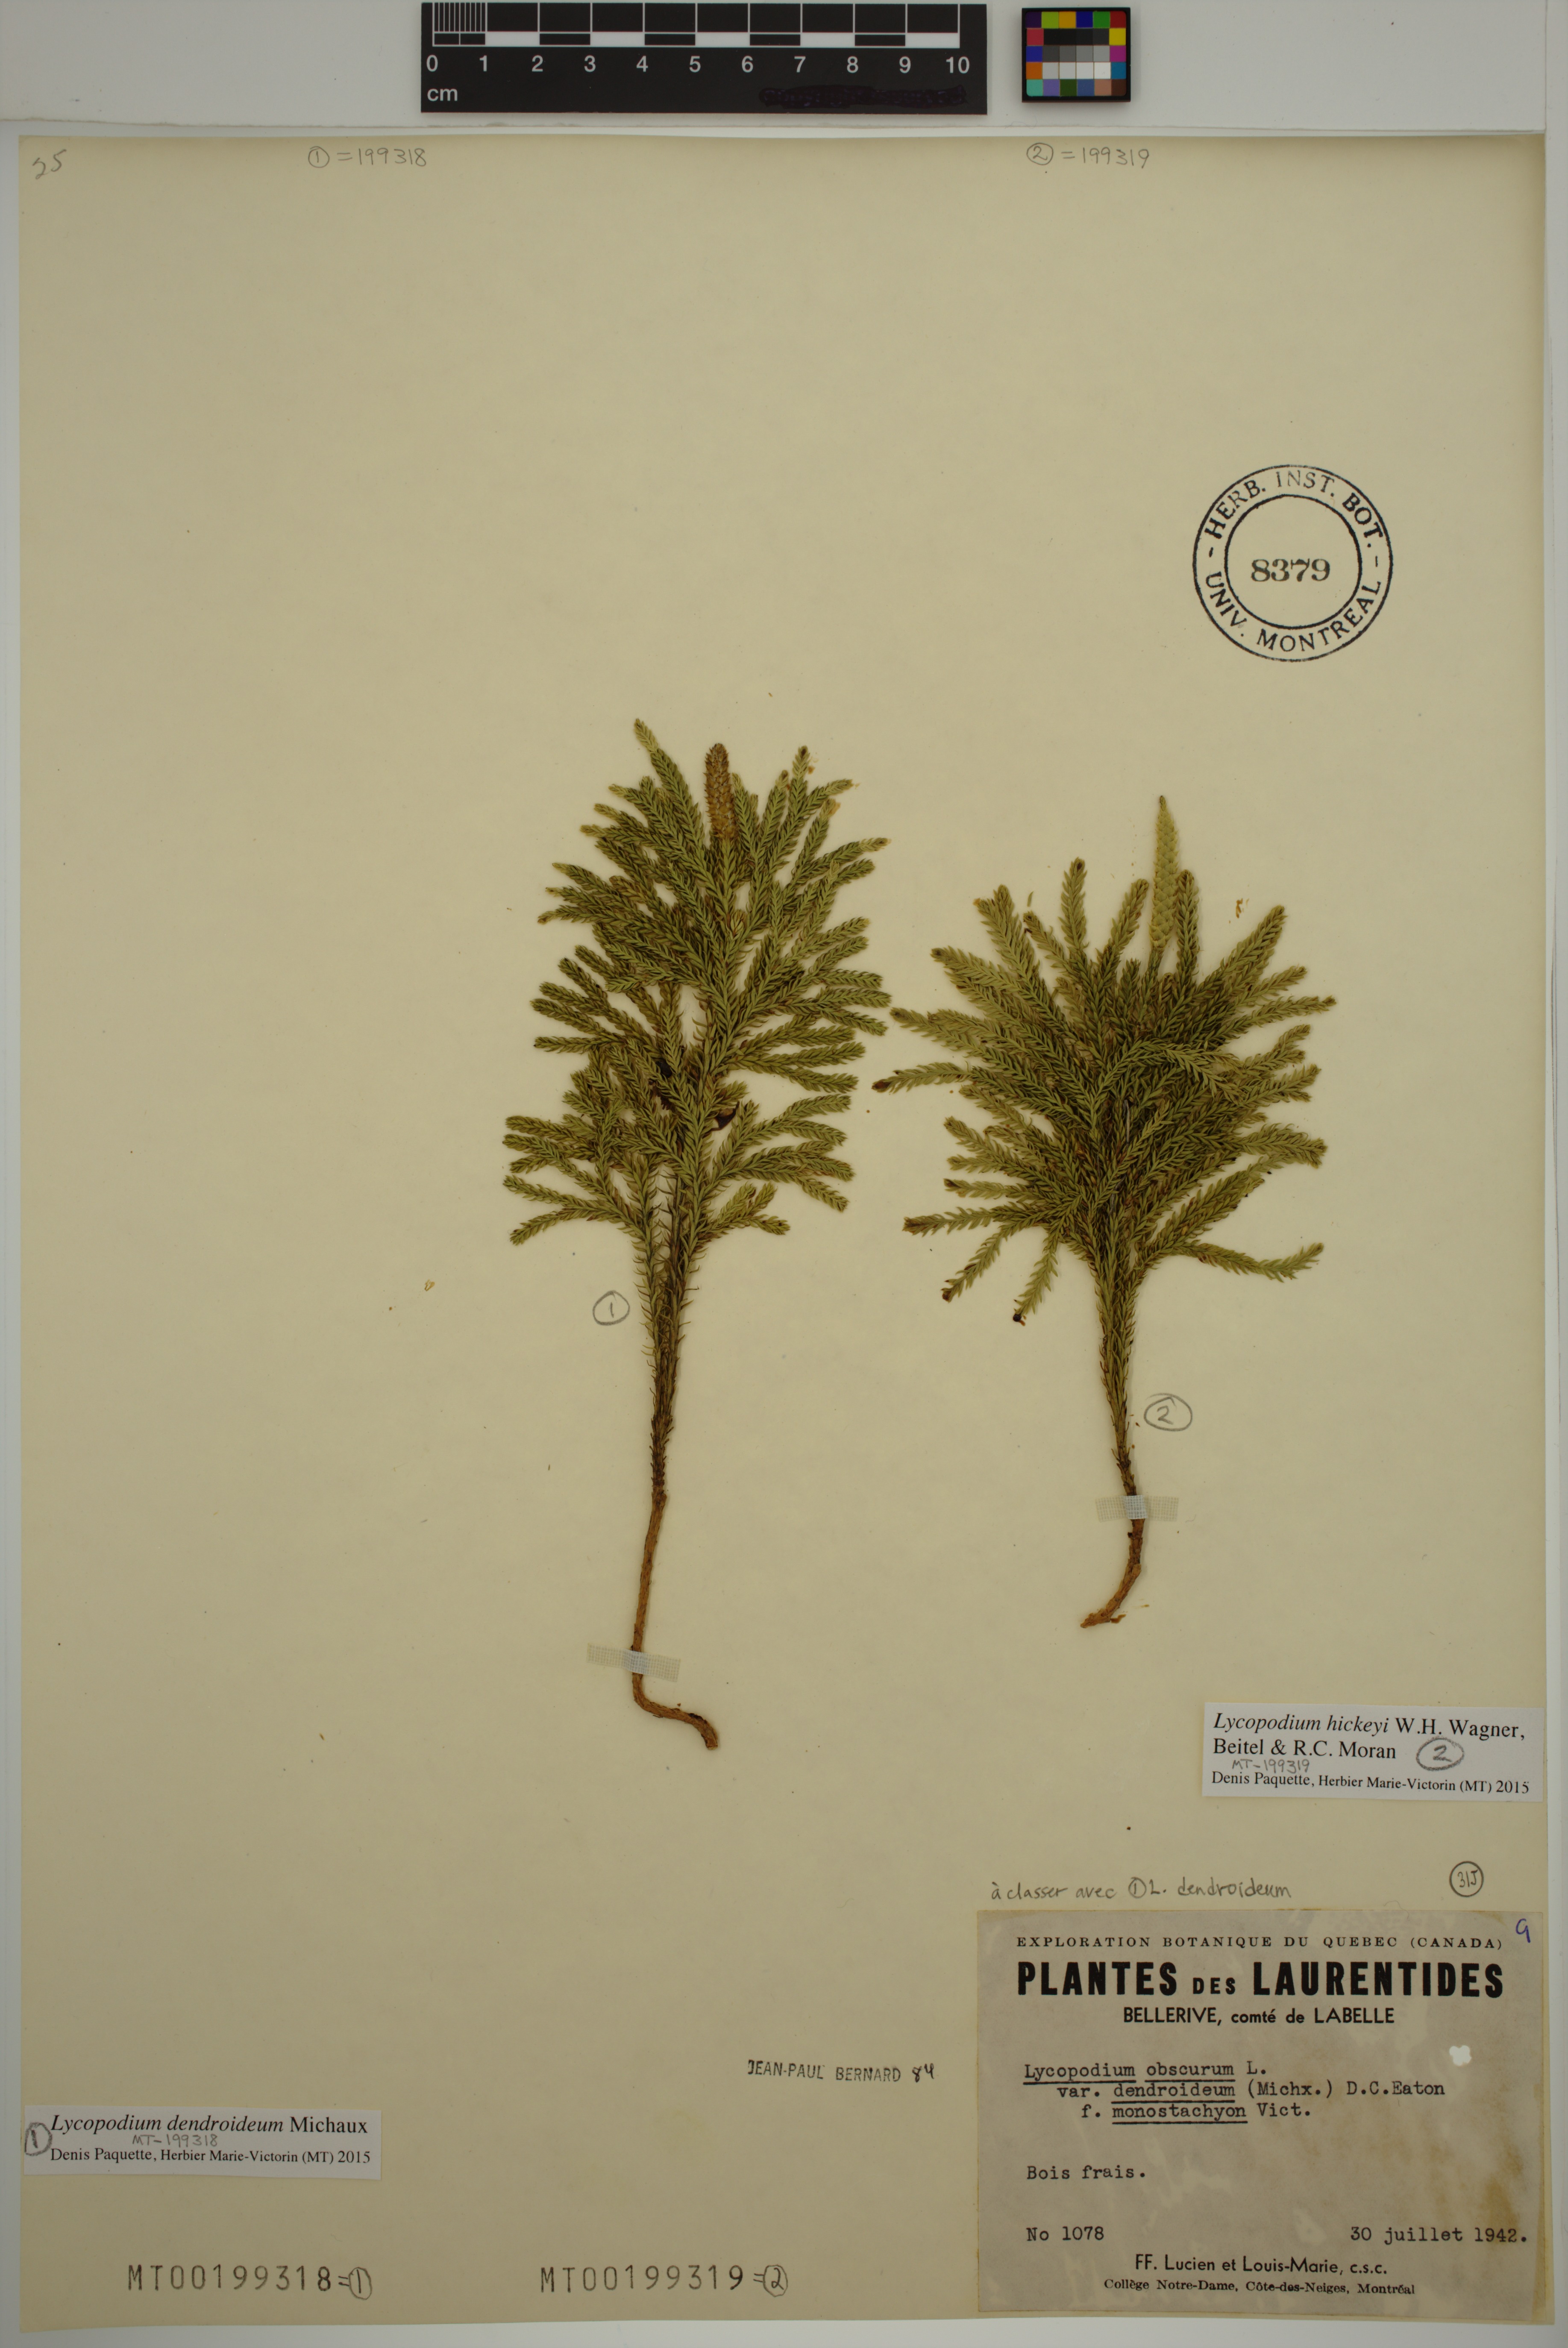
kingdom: Plantae
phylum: Tracheophyta
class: Lycopodiopsida
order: Lycopodiales
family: Lycopodiaceae
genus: Dendrolycopodium
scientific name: Dendrolycopodium dendroideum
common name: Northern tree-clubmoss
